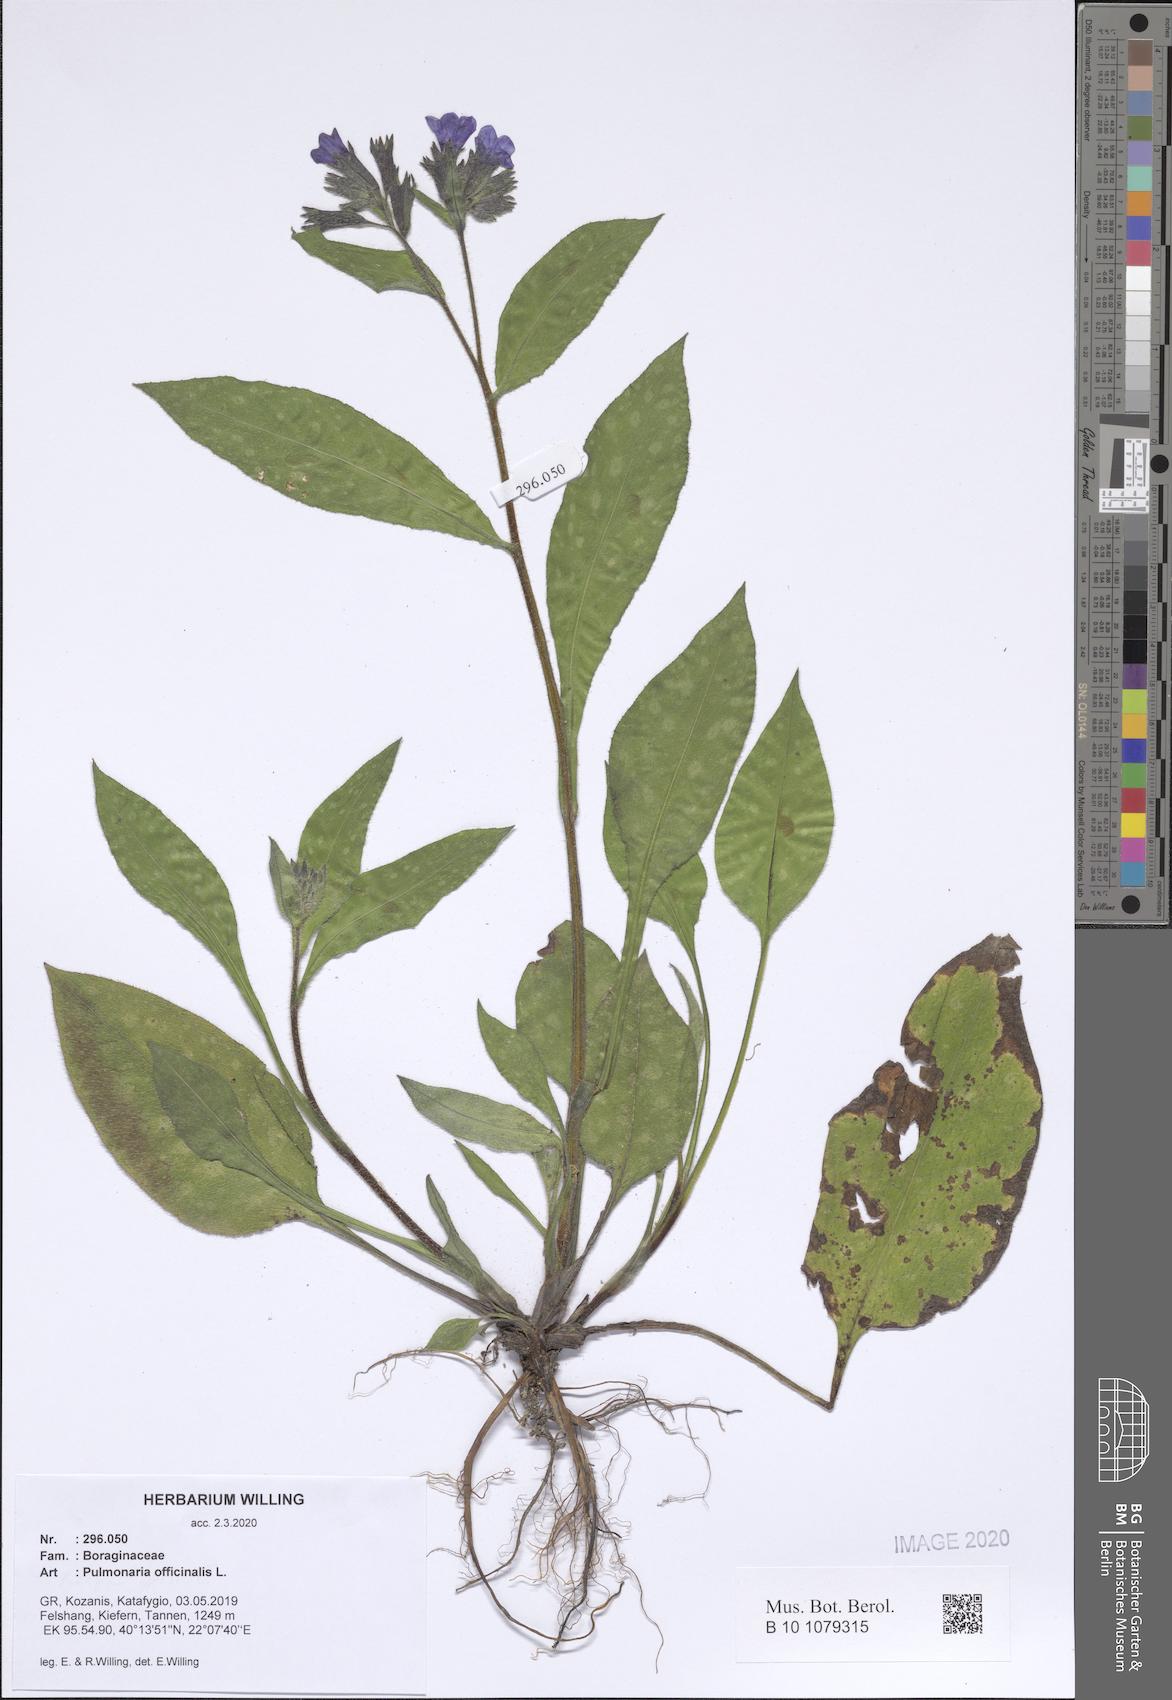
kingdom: Plantae
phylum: Tracheophyta
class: Magnoliopsida
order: Boraginales
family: Boraginaceae
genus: Pulmonaria
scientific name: Pulmonaria officinalis
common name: Lungwort
